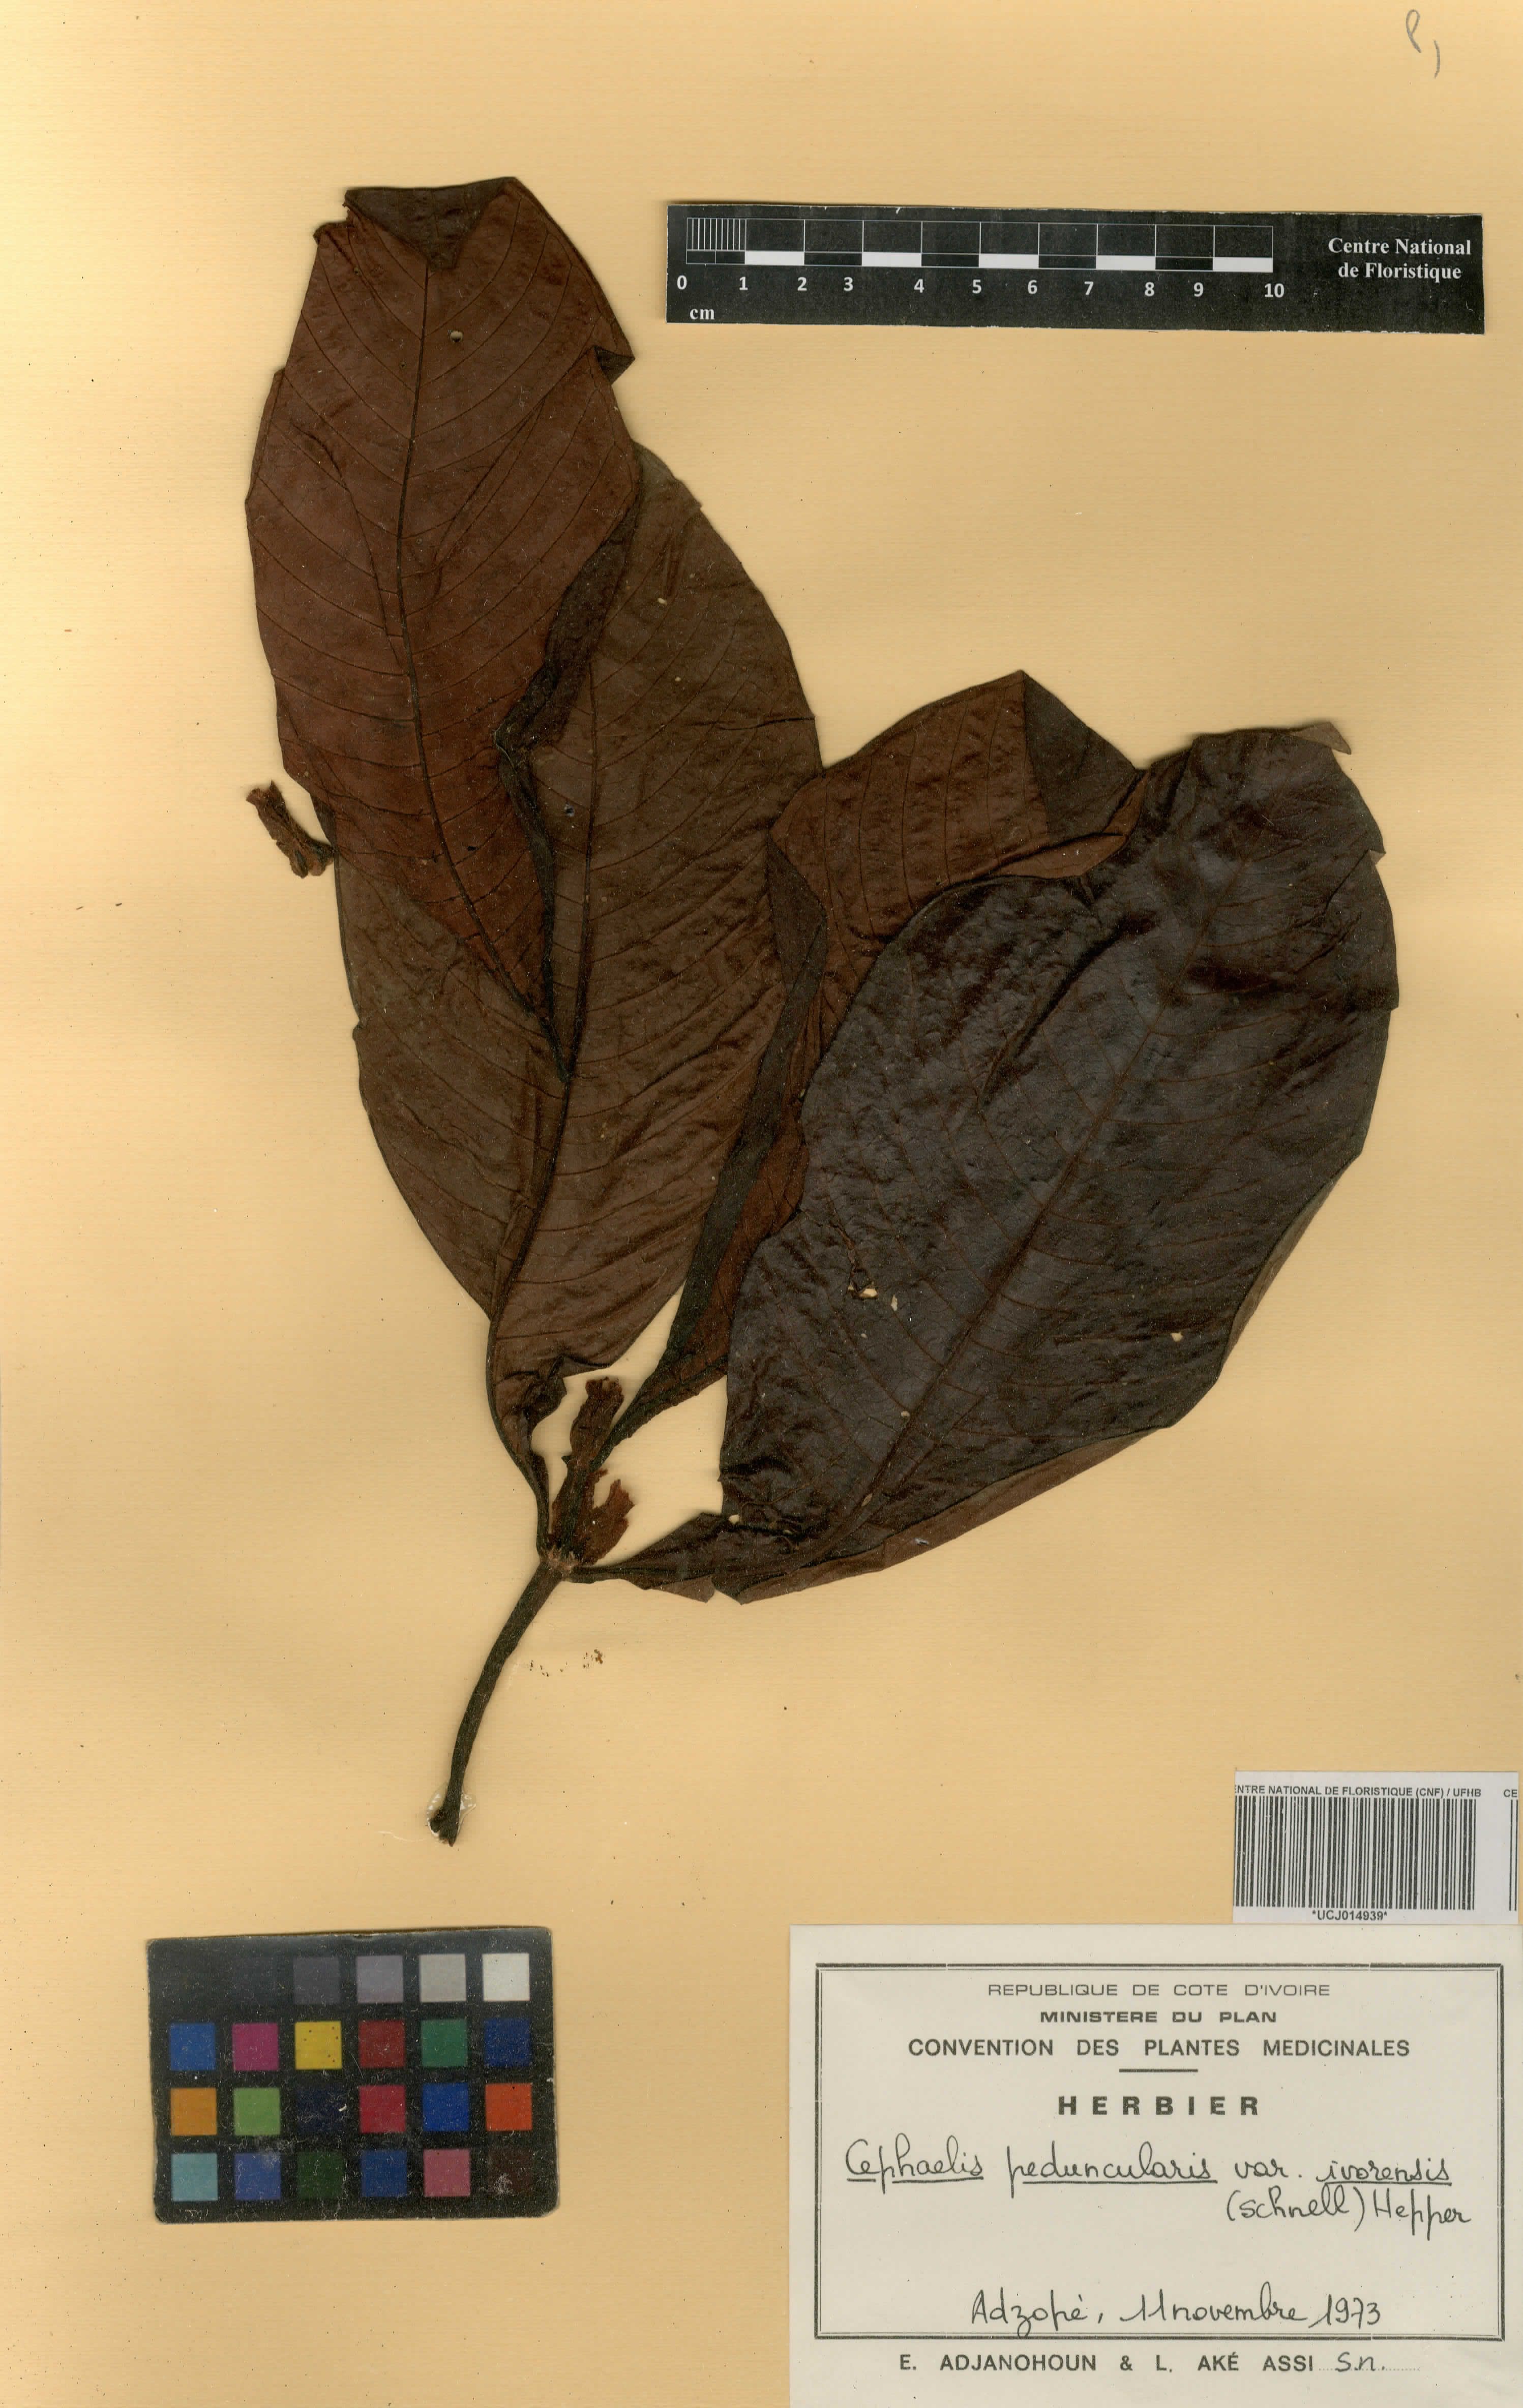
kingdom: Plantae
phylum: Tracheophyta
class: Magnoliopsida
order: Gentianales
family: Rubiaceae
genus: Psychotria
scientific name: Psychotria peduncularis
